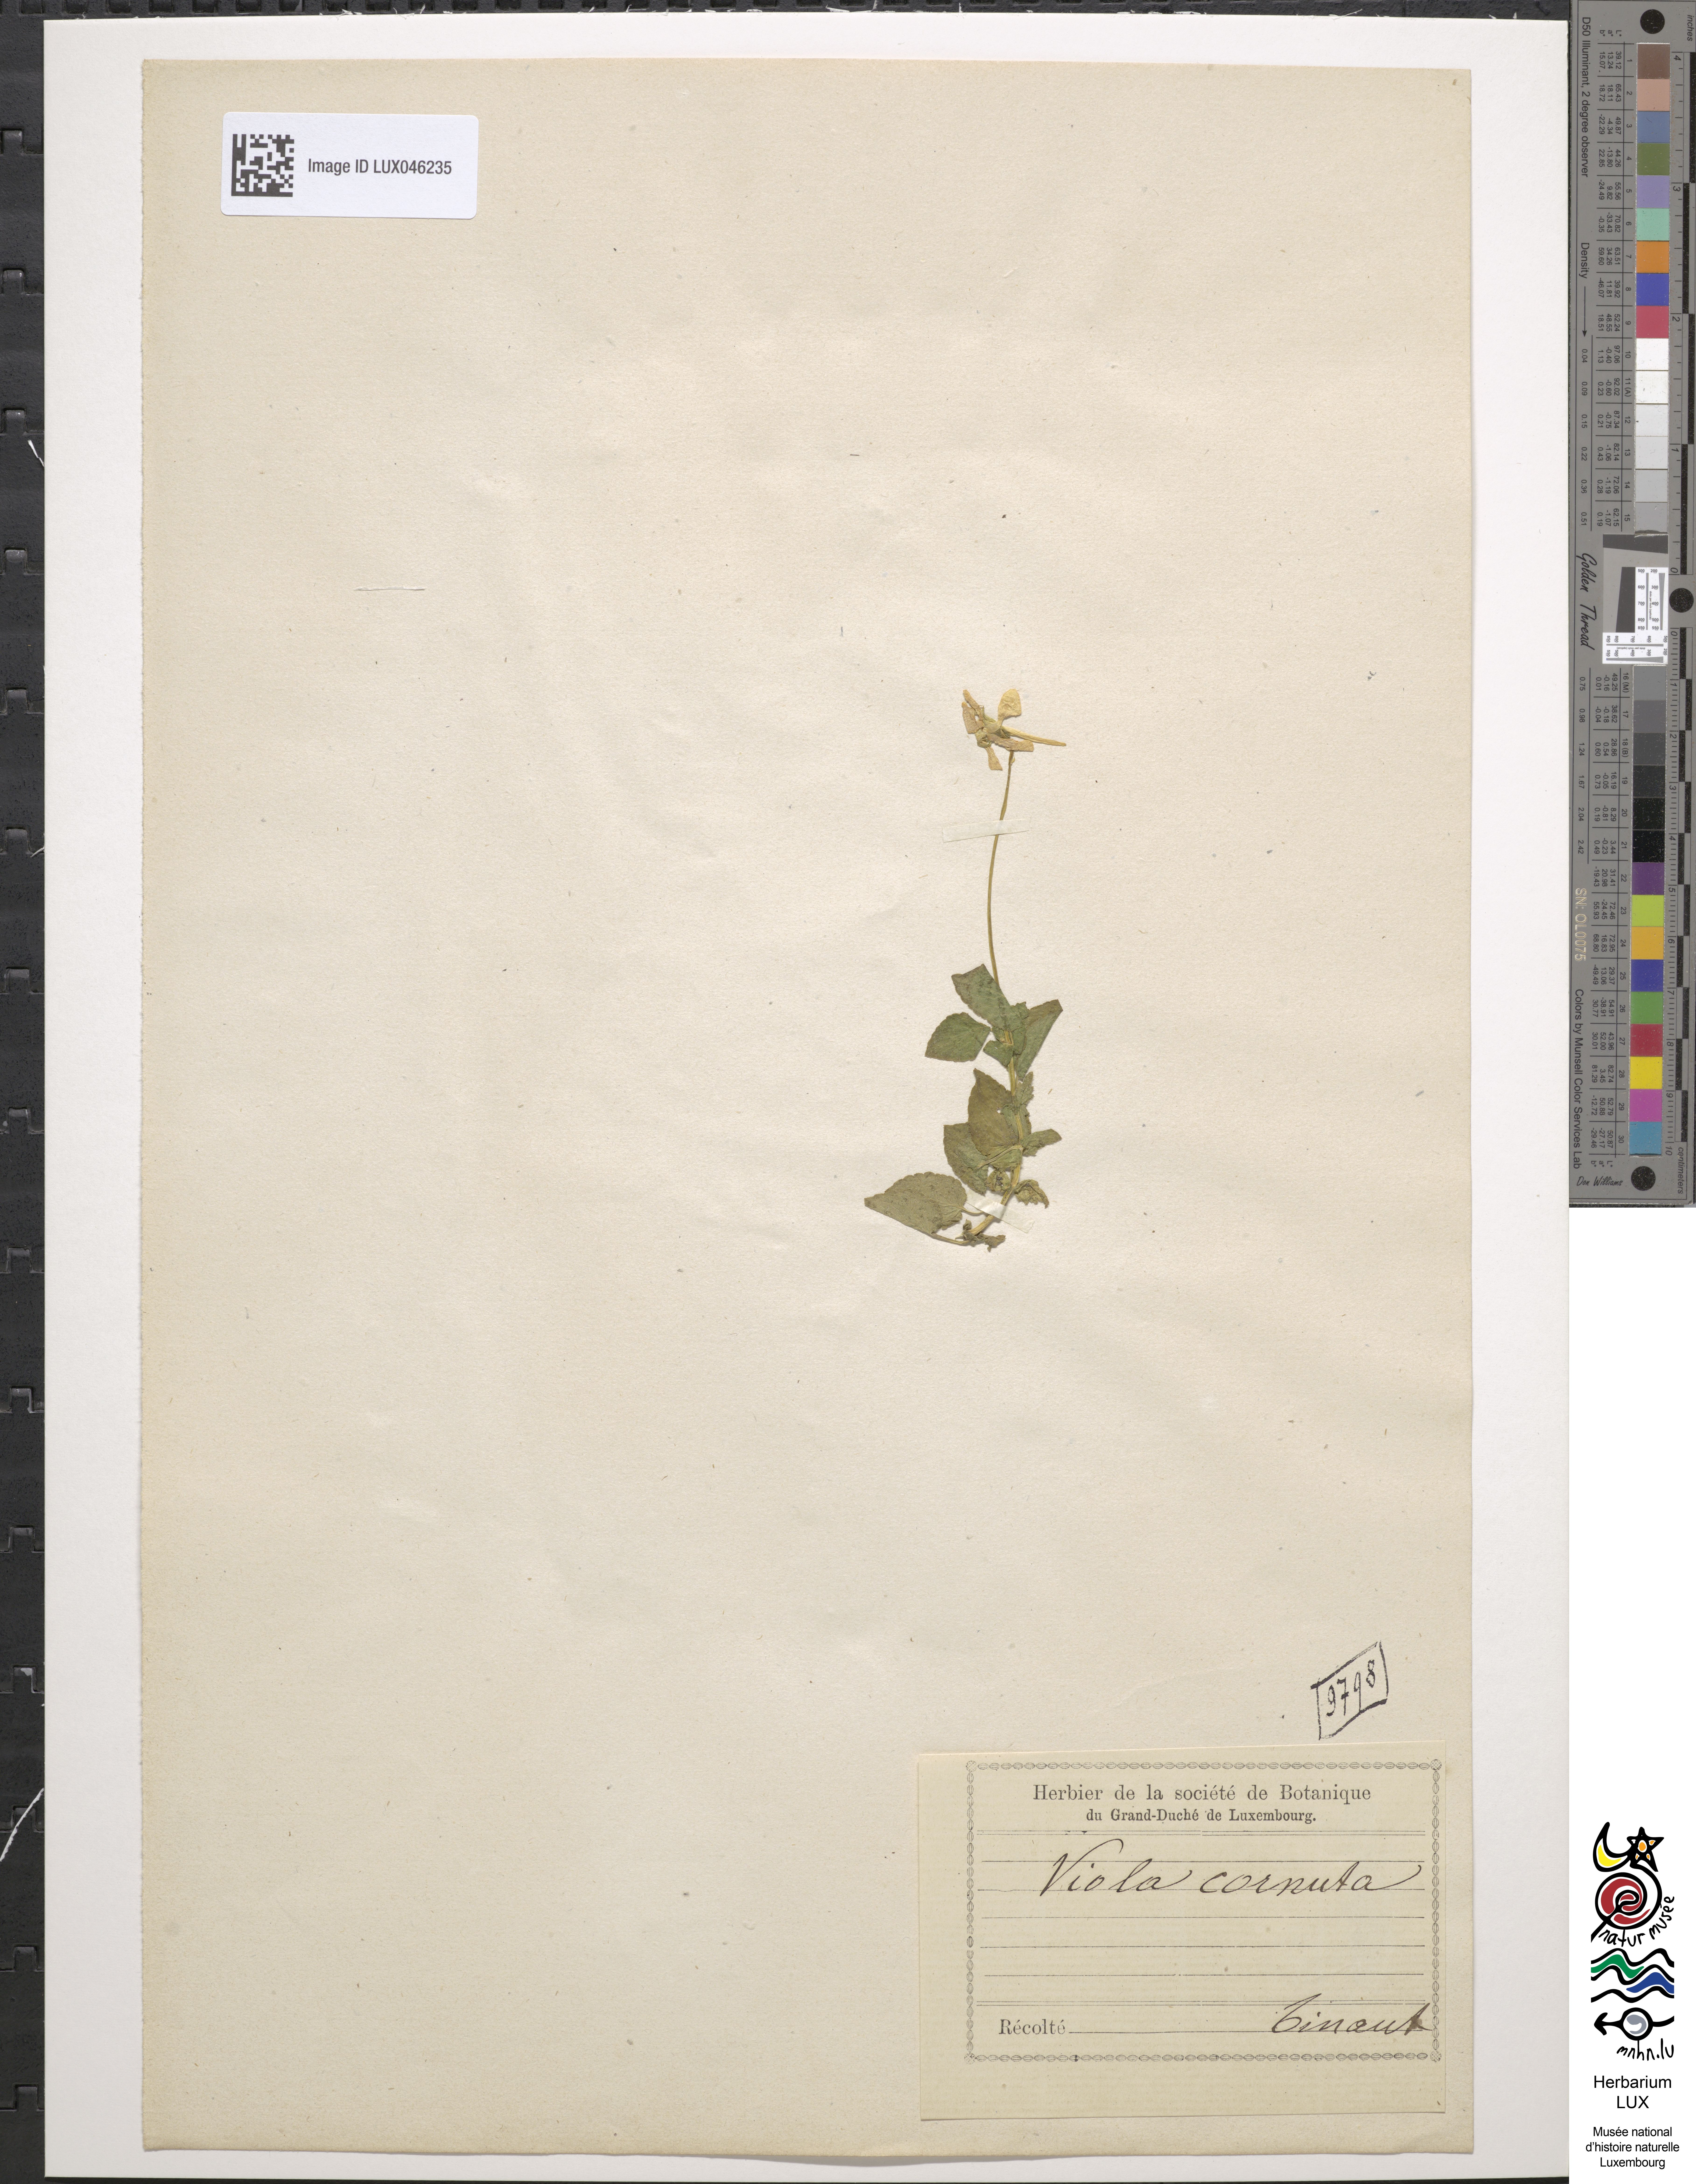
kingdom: Plantae
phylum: Tracheophyta
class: Magnoliopsida
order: Malpighiales
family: Violaceae
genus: Viola
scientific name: Viola cornuta
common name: Horned pansy
